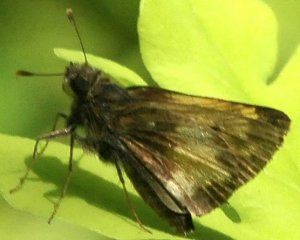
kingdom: Animalia
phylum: Arthropoda
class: Insecta
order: Lepidoptera
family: Hesperiidae
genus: Lon
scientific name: Lon hobomok
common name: Hobomok Skipper
